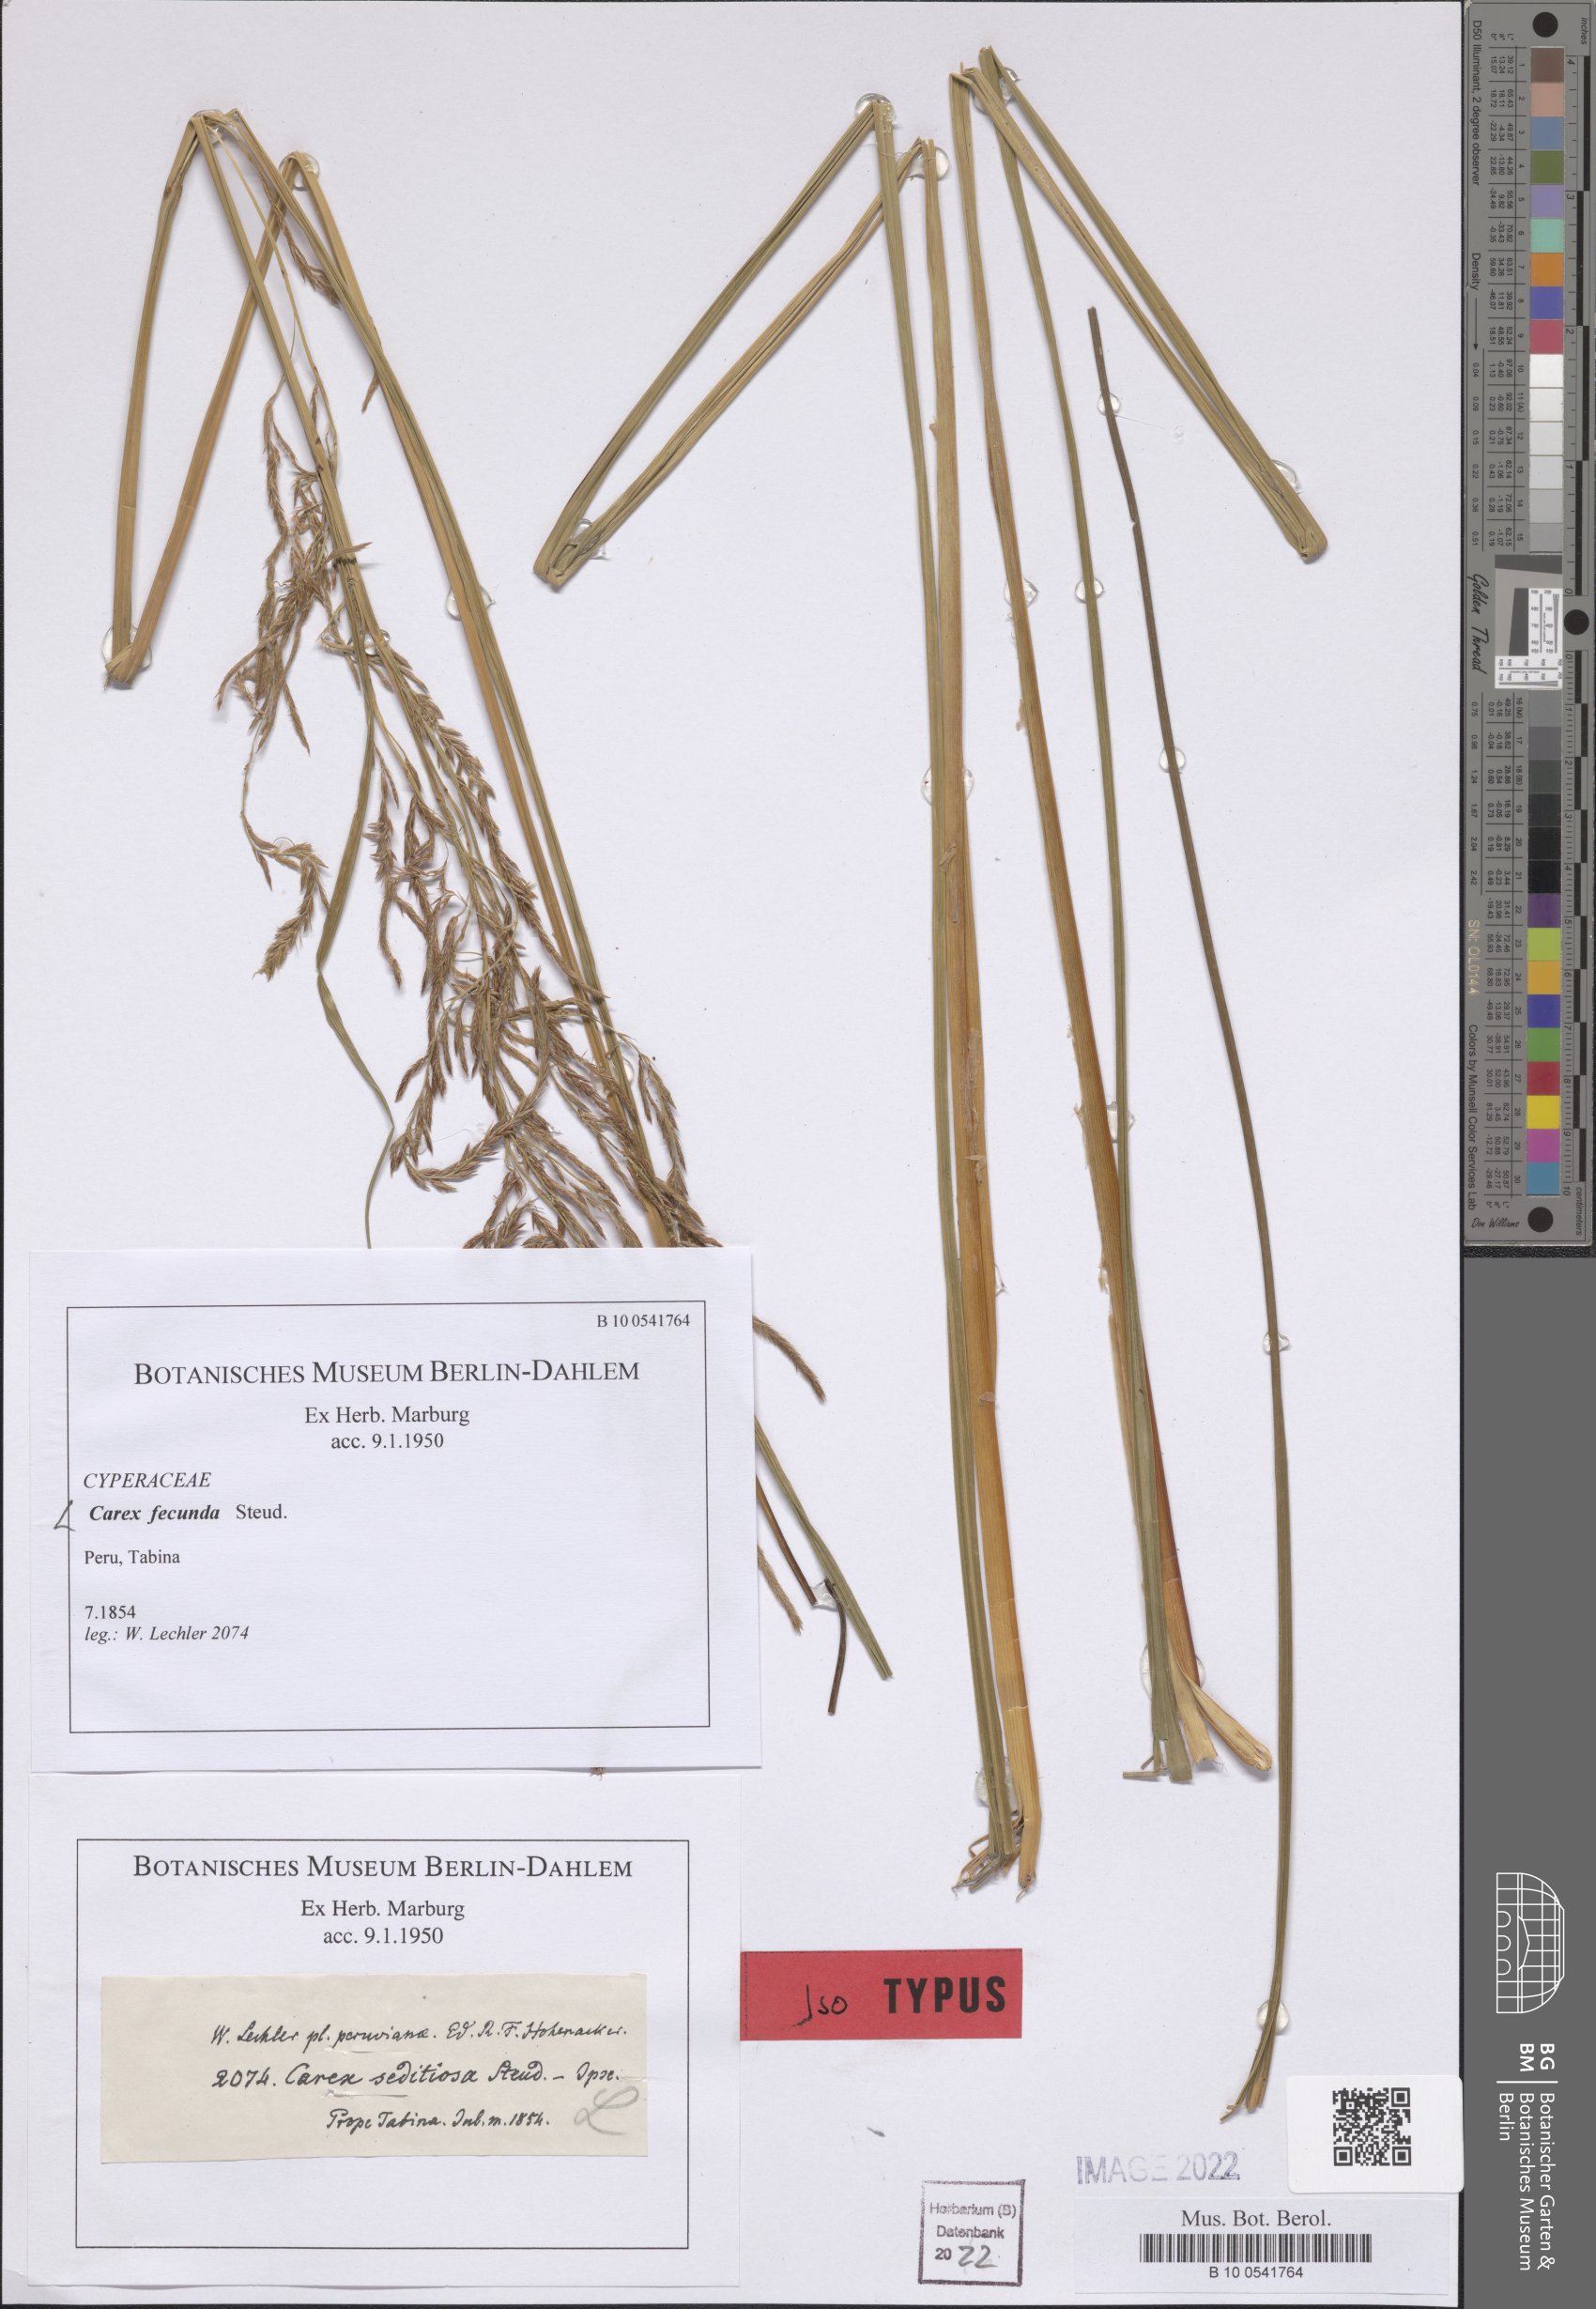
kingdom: Plantae
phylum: Tracheophyta
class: Liliopsida
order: Poales
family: Cyperaceae
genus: Carex
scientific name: Carex fecunda
